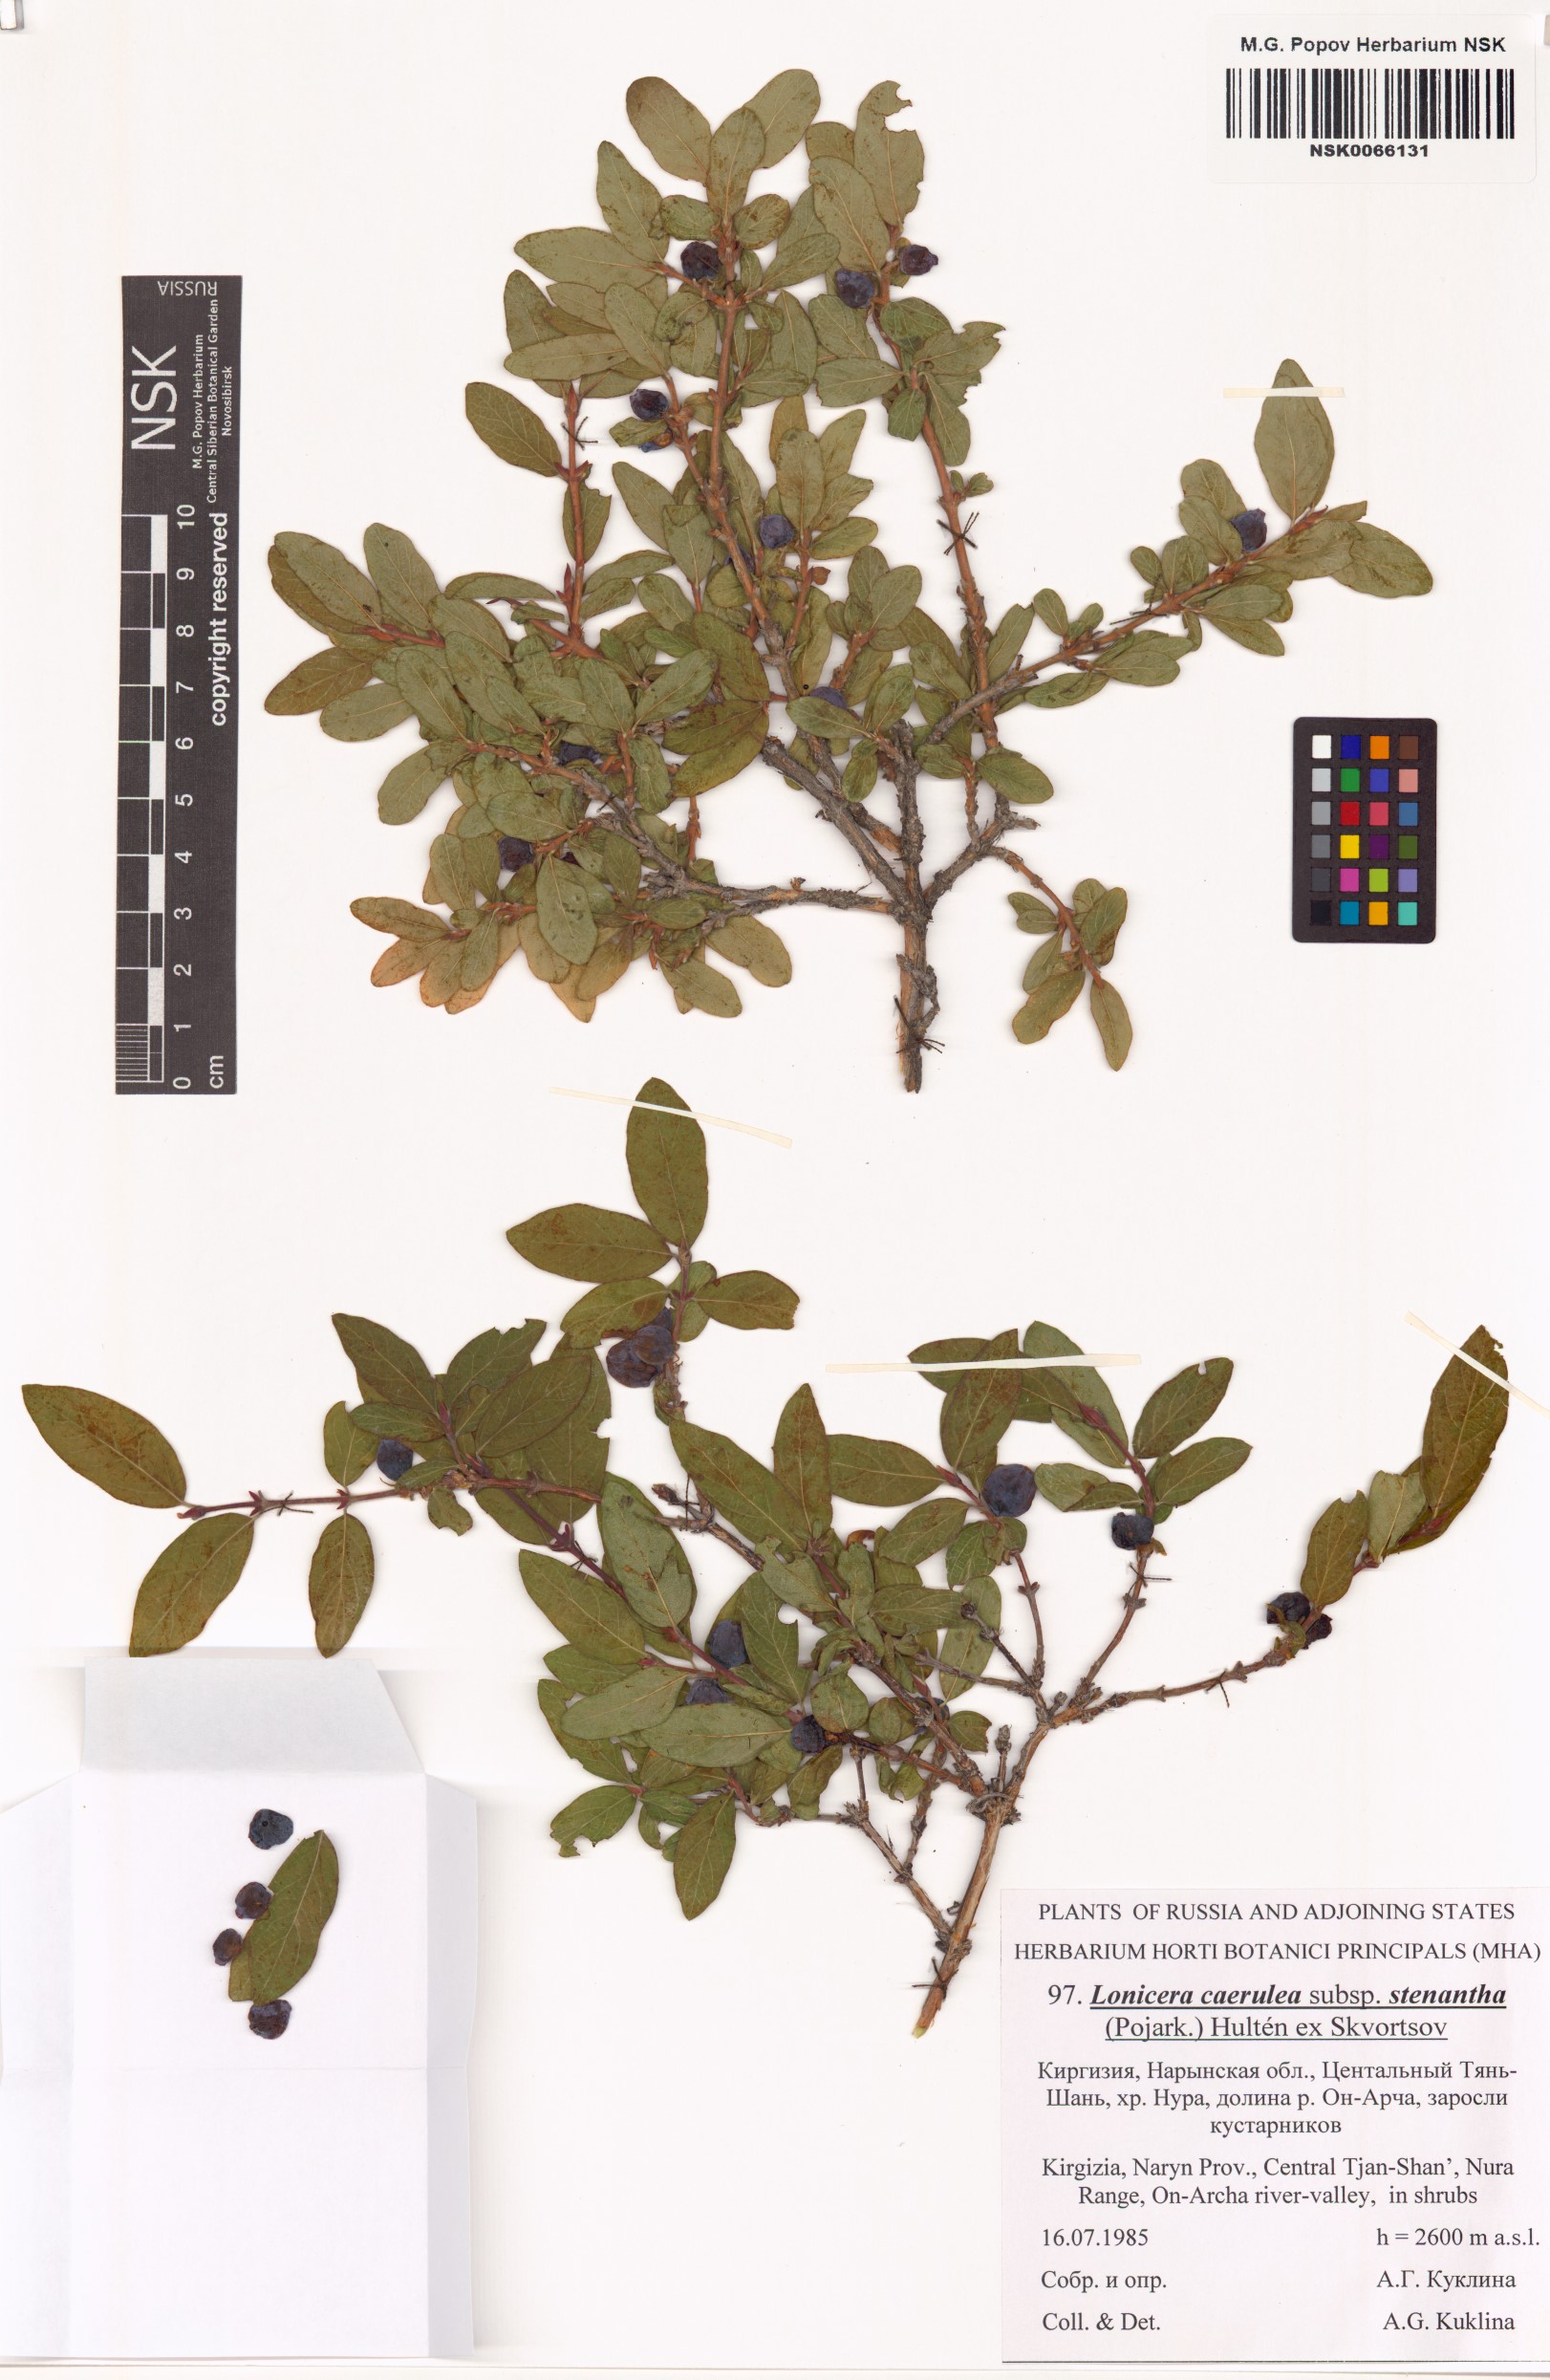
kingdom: Plantae
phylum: Tracheophyta
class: Magnoliopsida
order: Dipsacales
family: Caprifoliaceae
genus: Lonicera
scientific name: Lonicera stenantha
